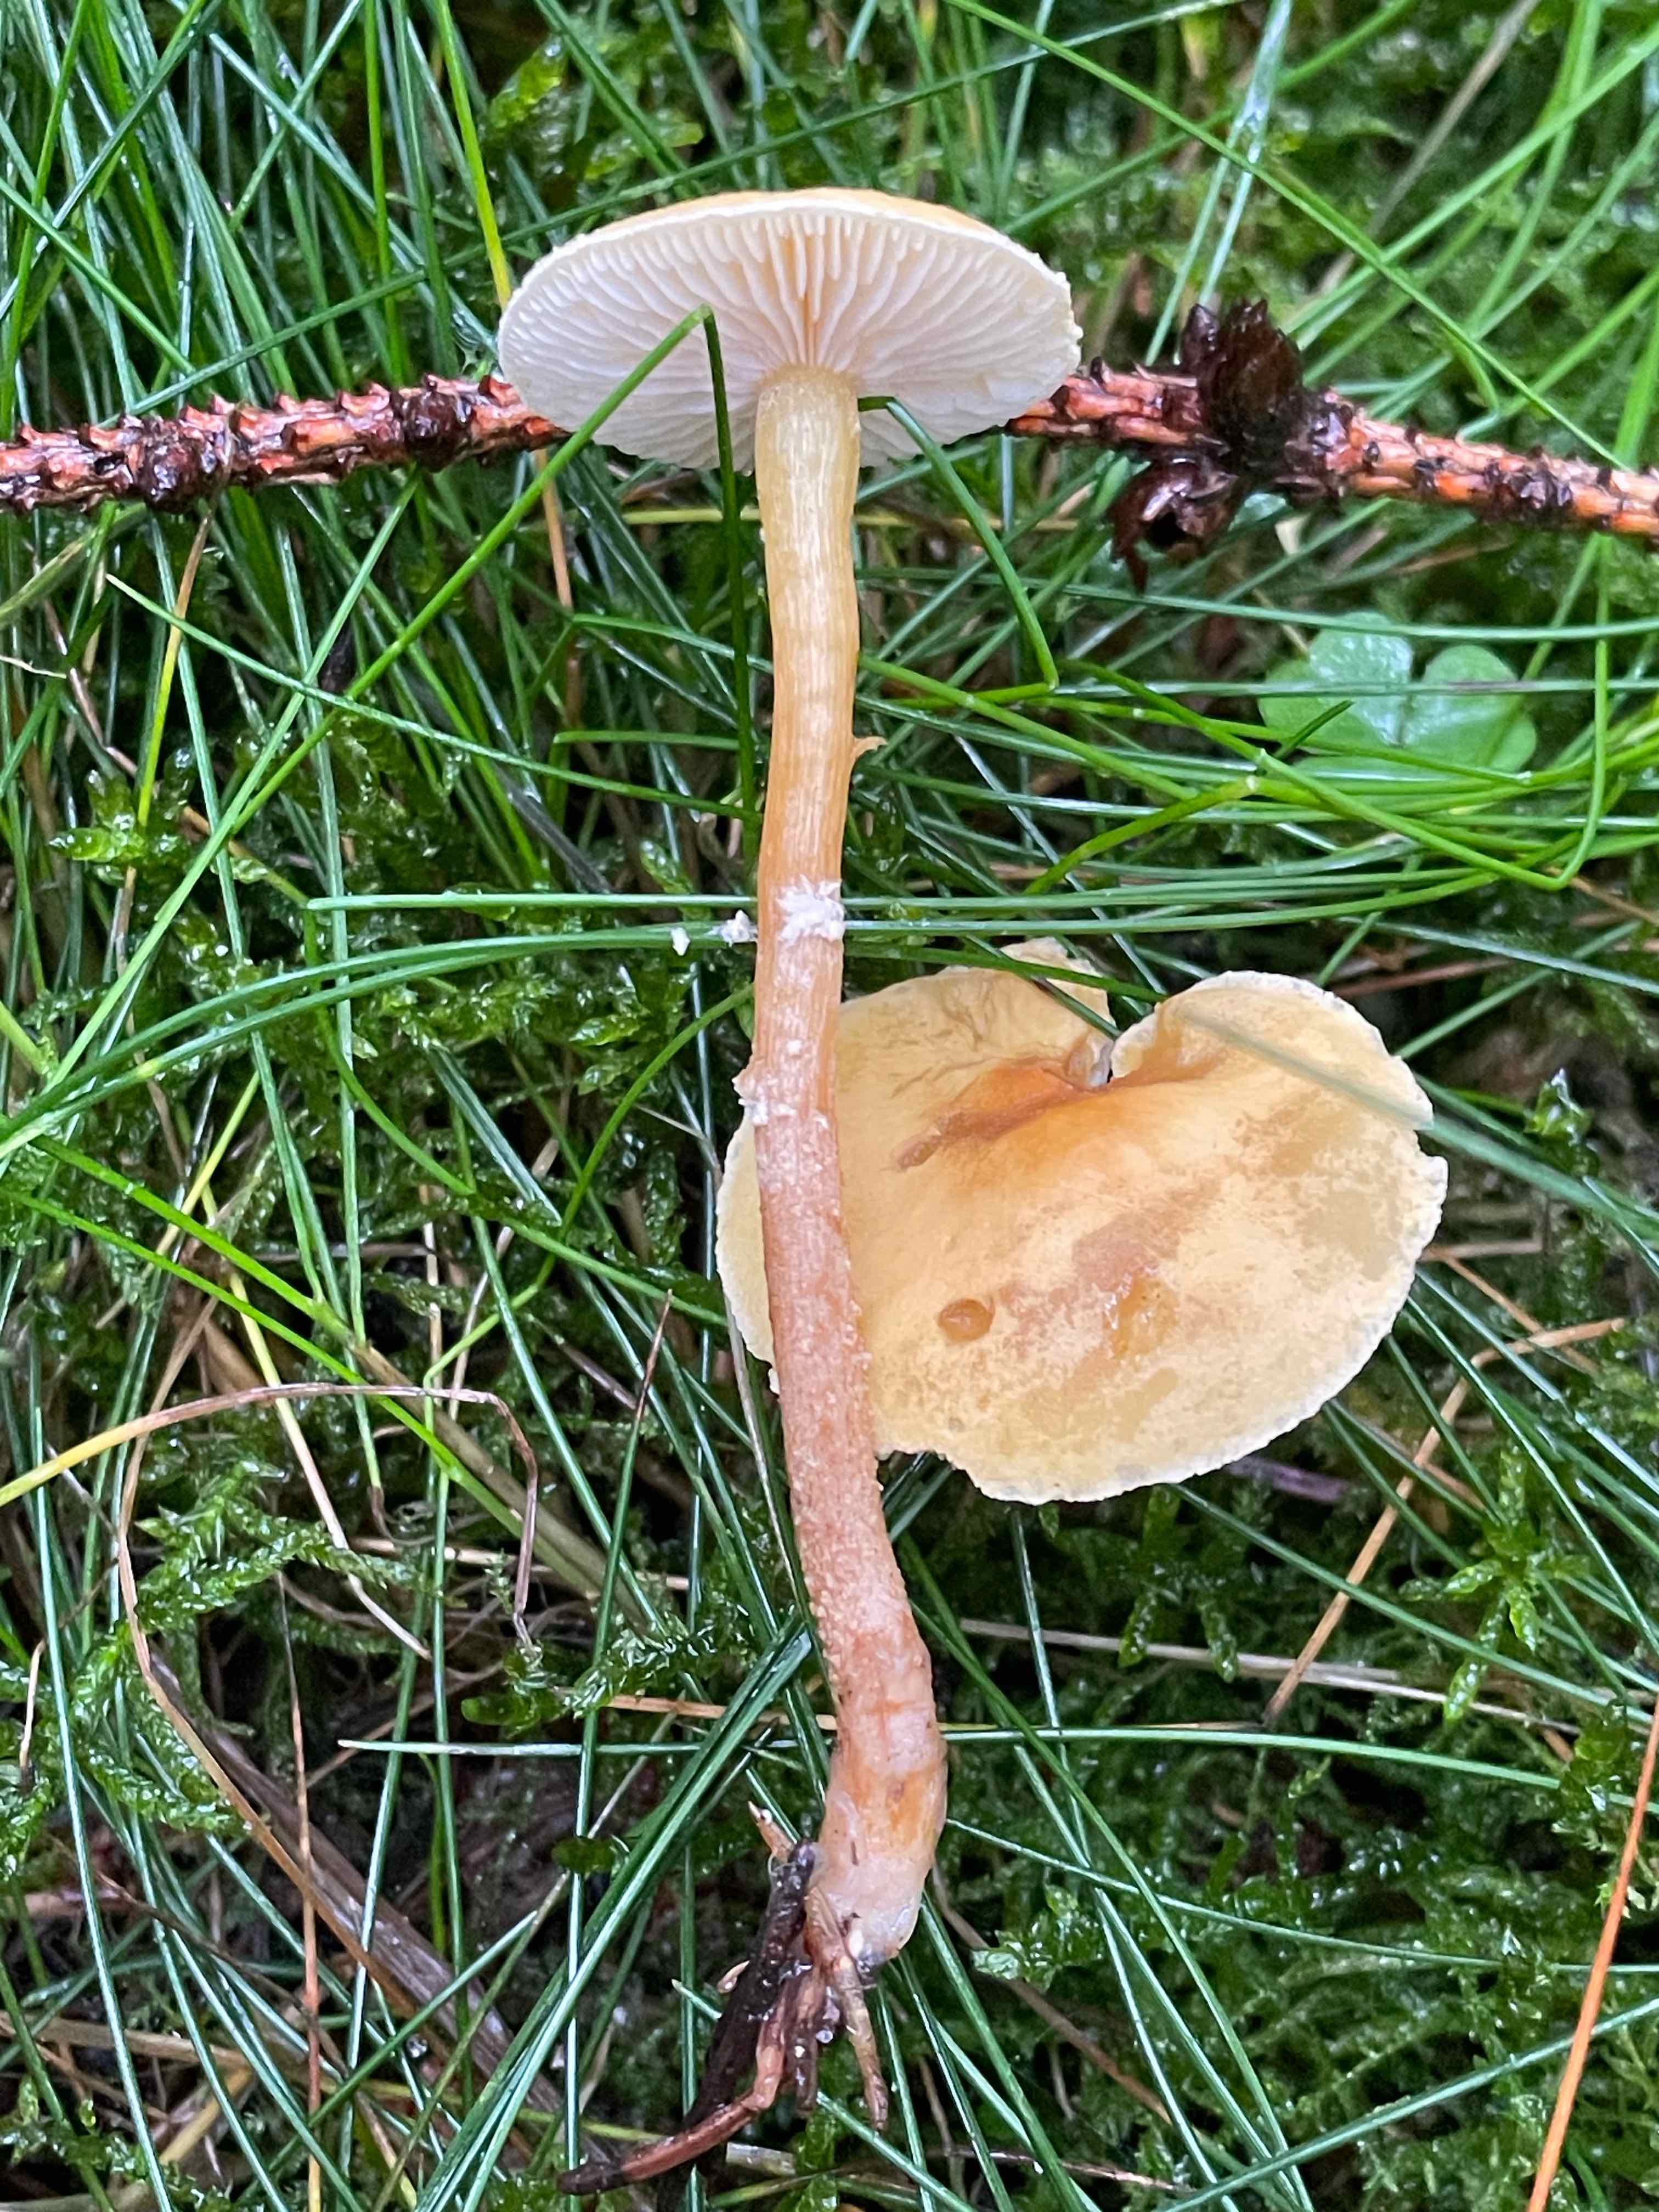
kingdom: Fungi
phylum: Basidiomycota
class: Agaricomycetes
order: Agaricales
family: Tricholomataceae
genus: Cystoderma
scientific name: Cystoderma amianthinum
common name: okkergul grynhat
